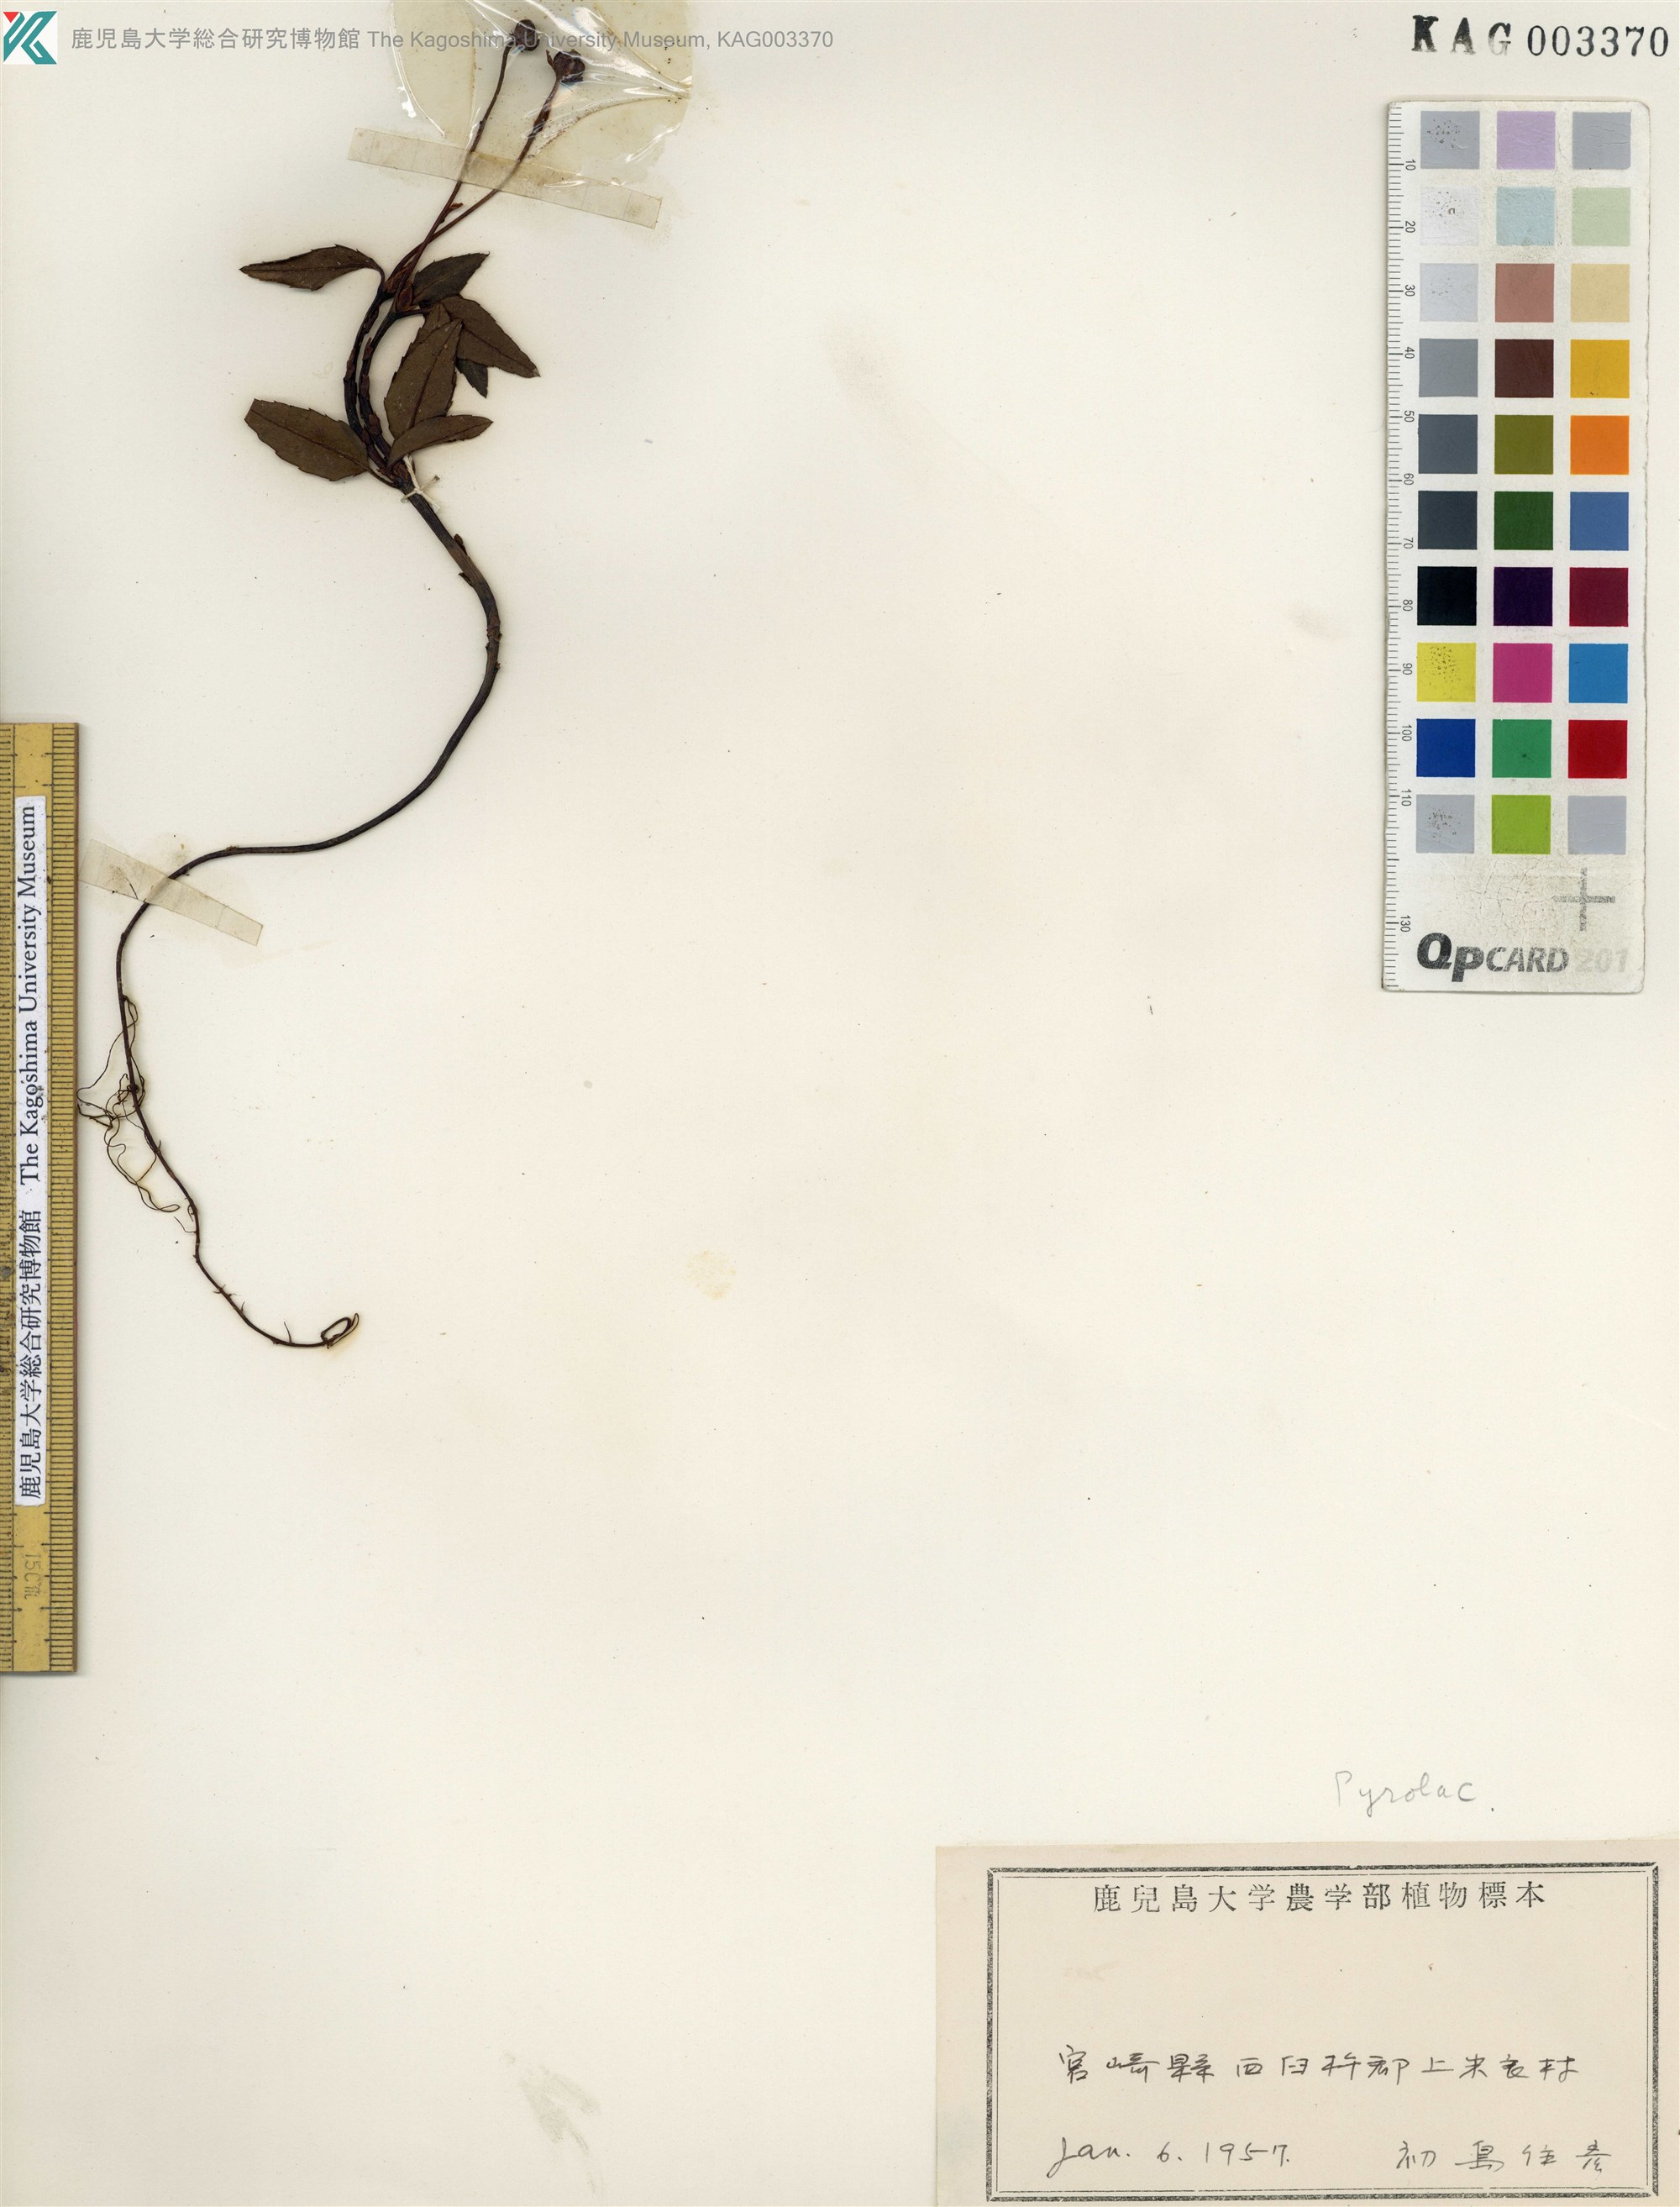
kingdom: Plantae
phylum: Tracheophyta
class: Magnoliopsida
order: Ericales
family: Ericaceae
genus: Chimaphila
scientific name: Chimaphila japonica
